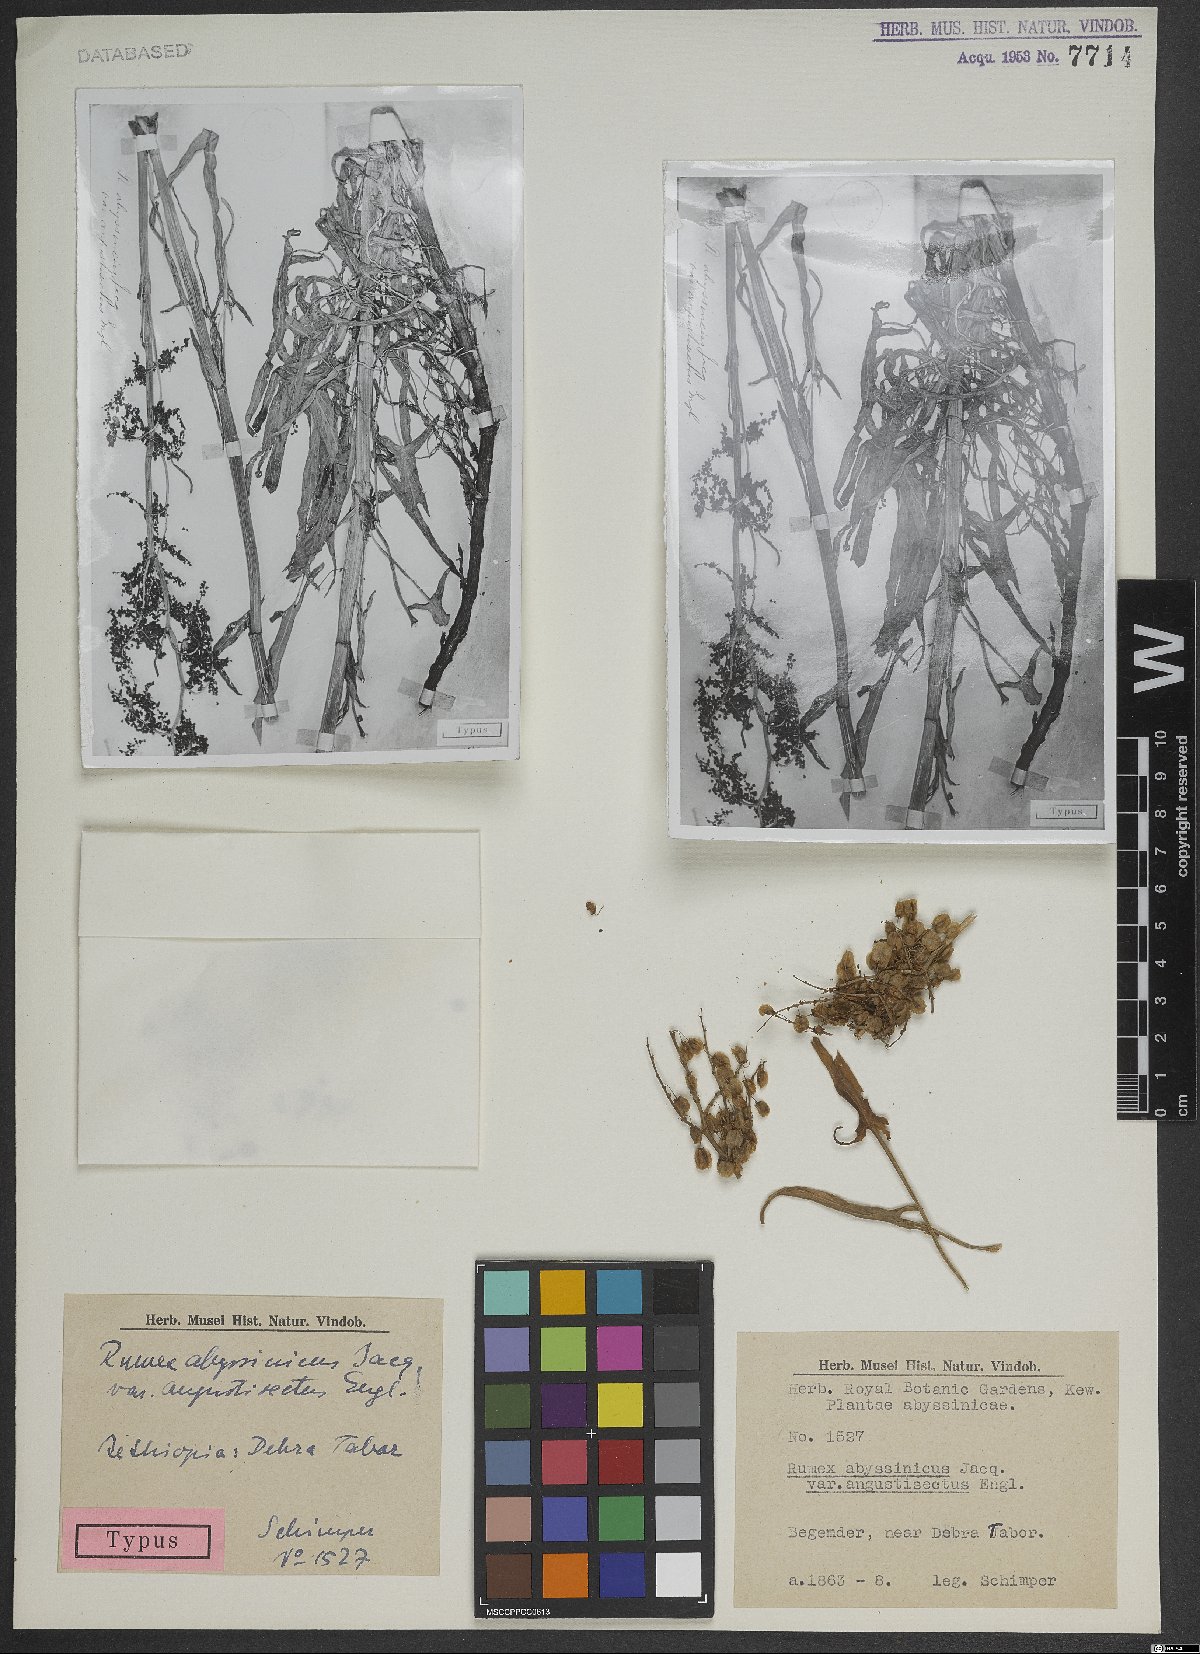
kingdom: Plantae
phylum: Tracheophyta
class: Magnoliopsida
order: Caryophyllales
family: Polygonaceae
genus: Rumex
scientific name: Rumex abyssinicus
